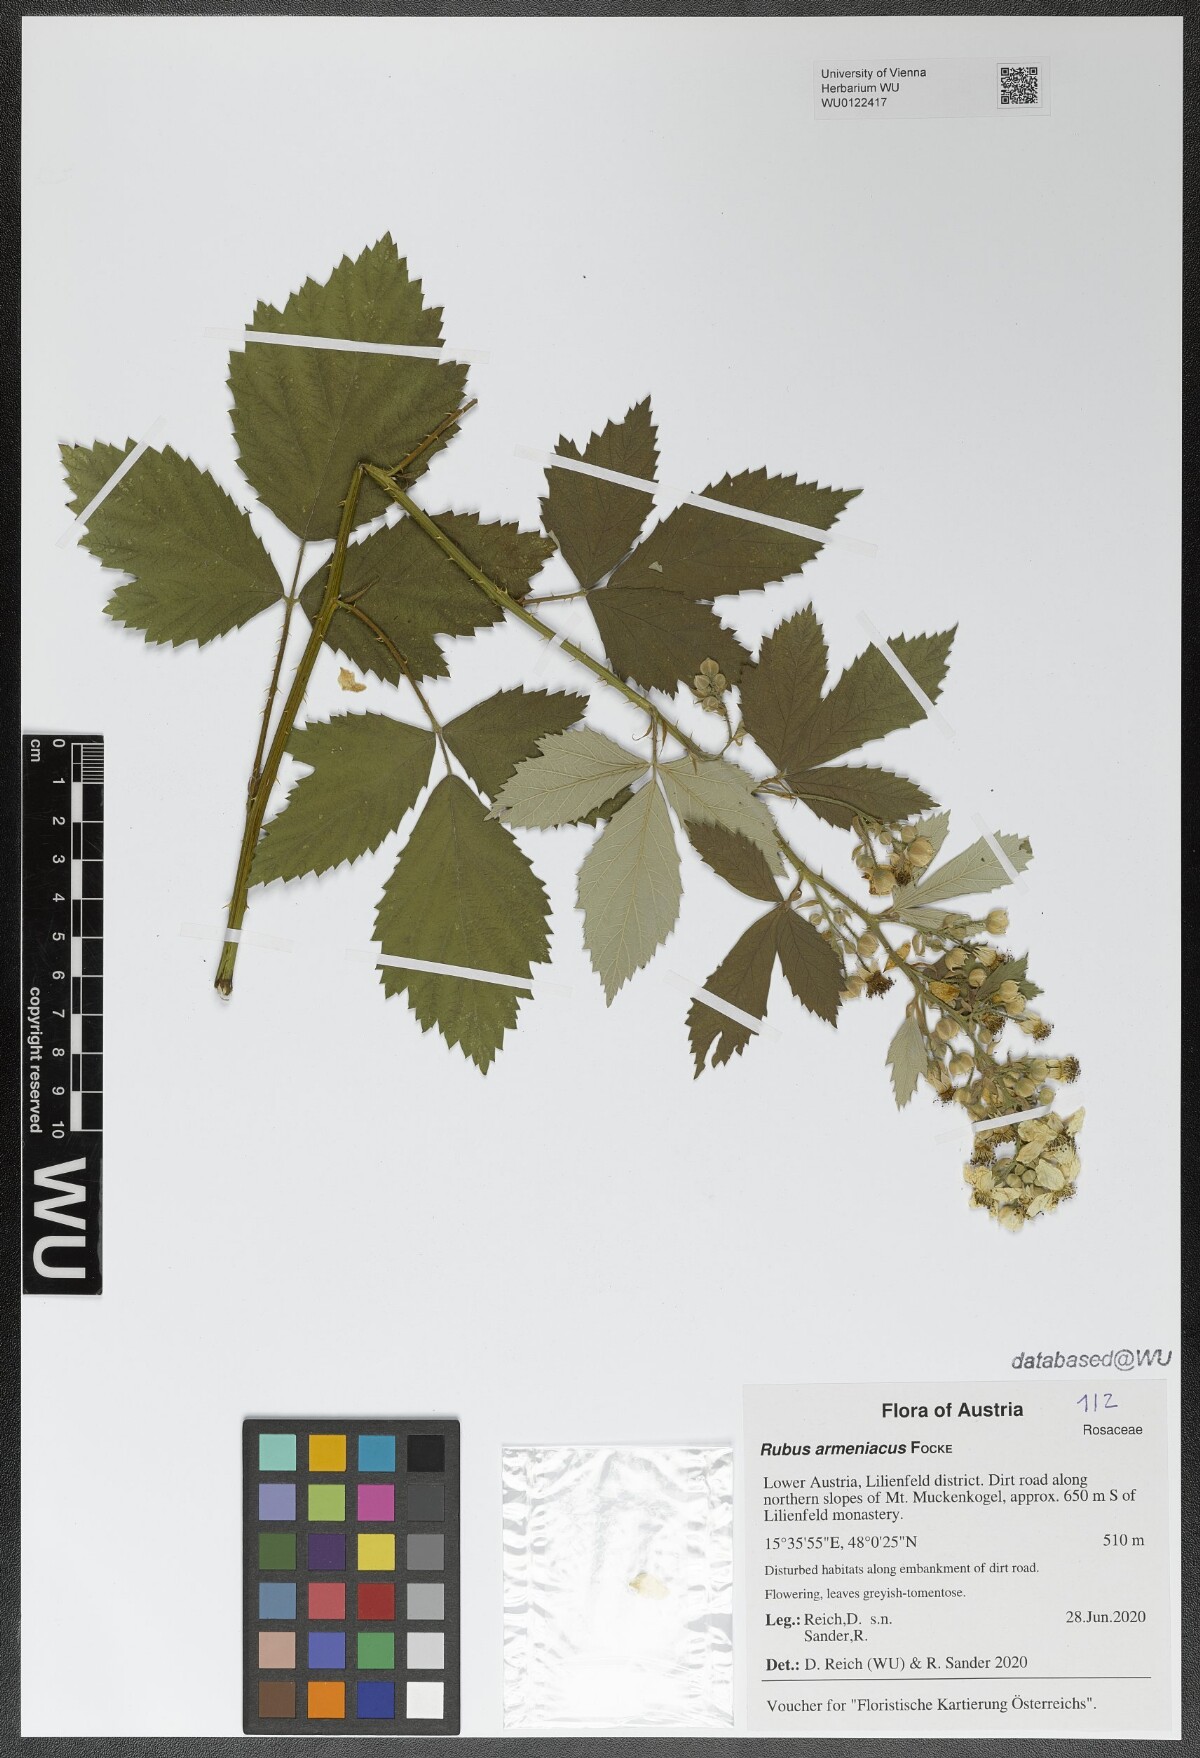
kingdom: Plantae
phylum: Tracheophyta
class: Magnoliopsida
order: Rosales
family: Rosaceae
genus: Rubus
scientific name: Rubus armeniacus
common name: Himalayan blackberry
